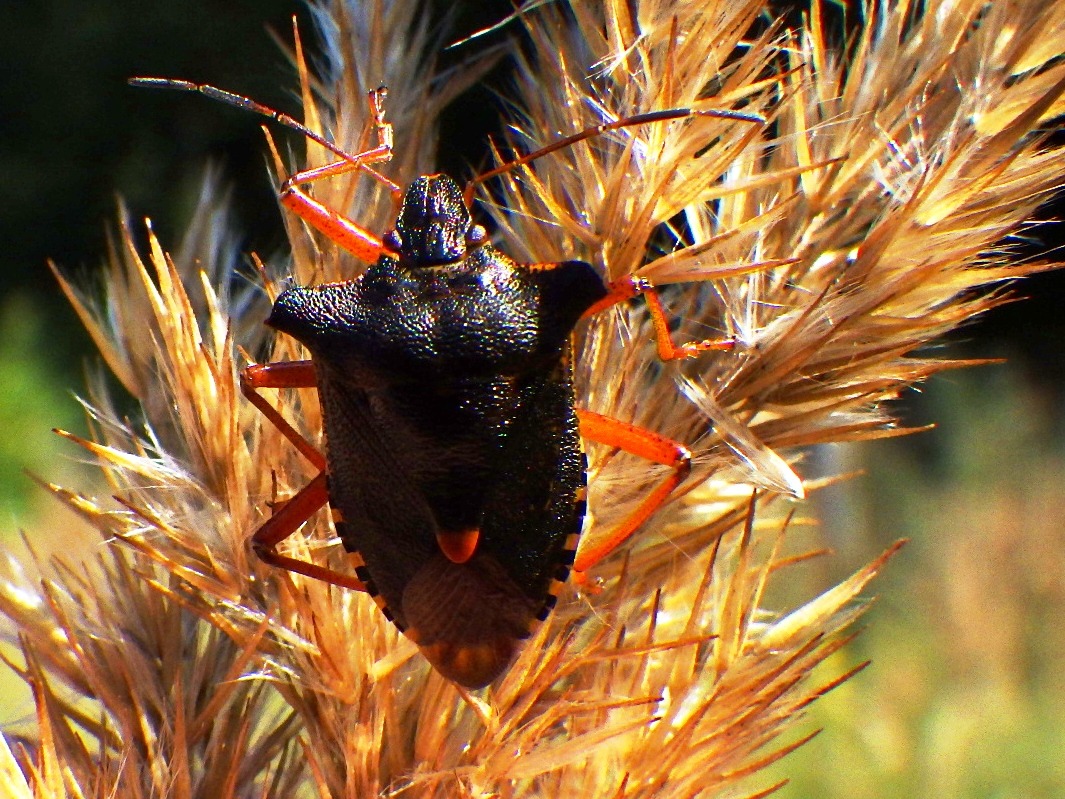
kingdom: Animalia
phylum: Arthropoda
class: Insecta
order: Hemiptera
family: Pentatomidae
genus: Pentatoma
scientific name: Pentatoma rufipes
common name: Rødbenet bredtæge
